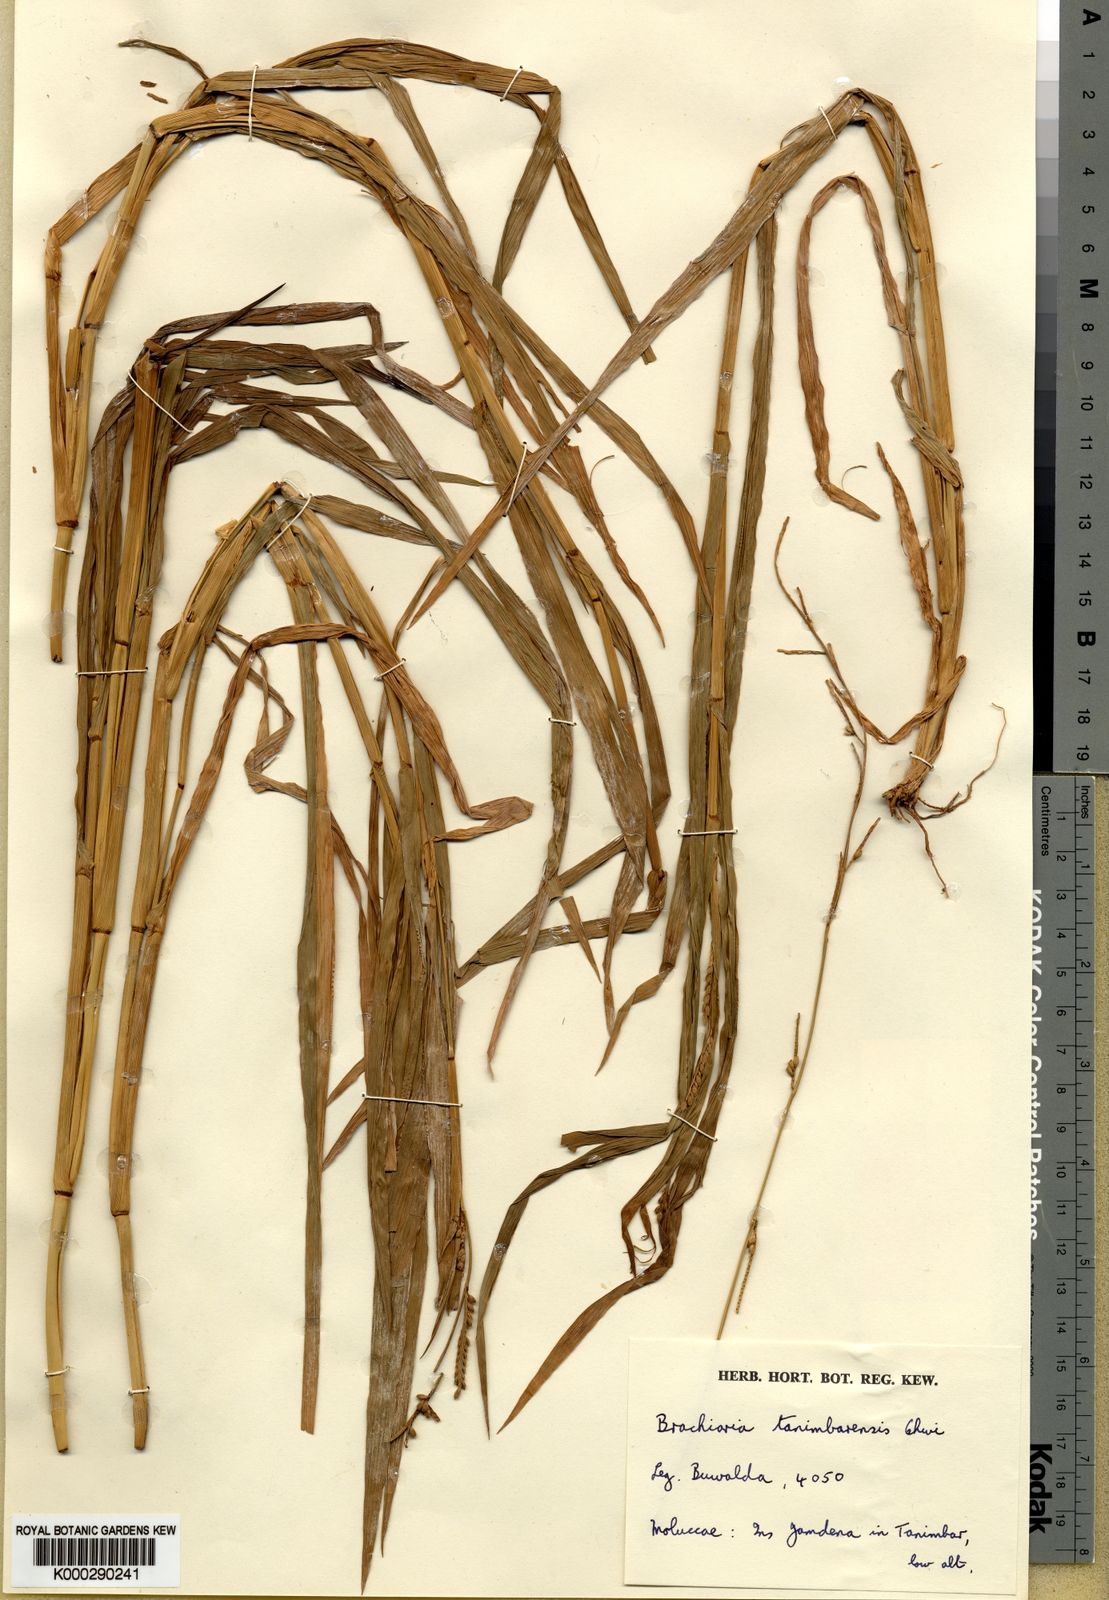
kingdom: Plantae
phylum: Tracheophyta
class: Liliopsida
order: Poales
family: Poaceae
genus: Urochloa
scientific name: Urochloa tanimbarensis
